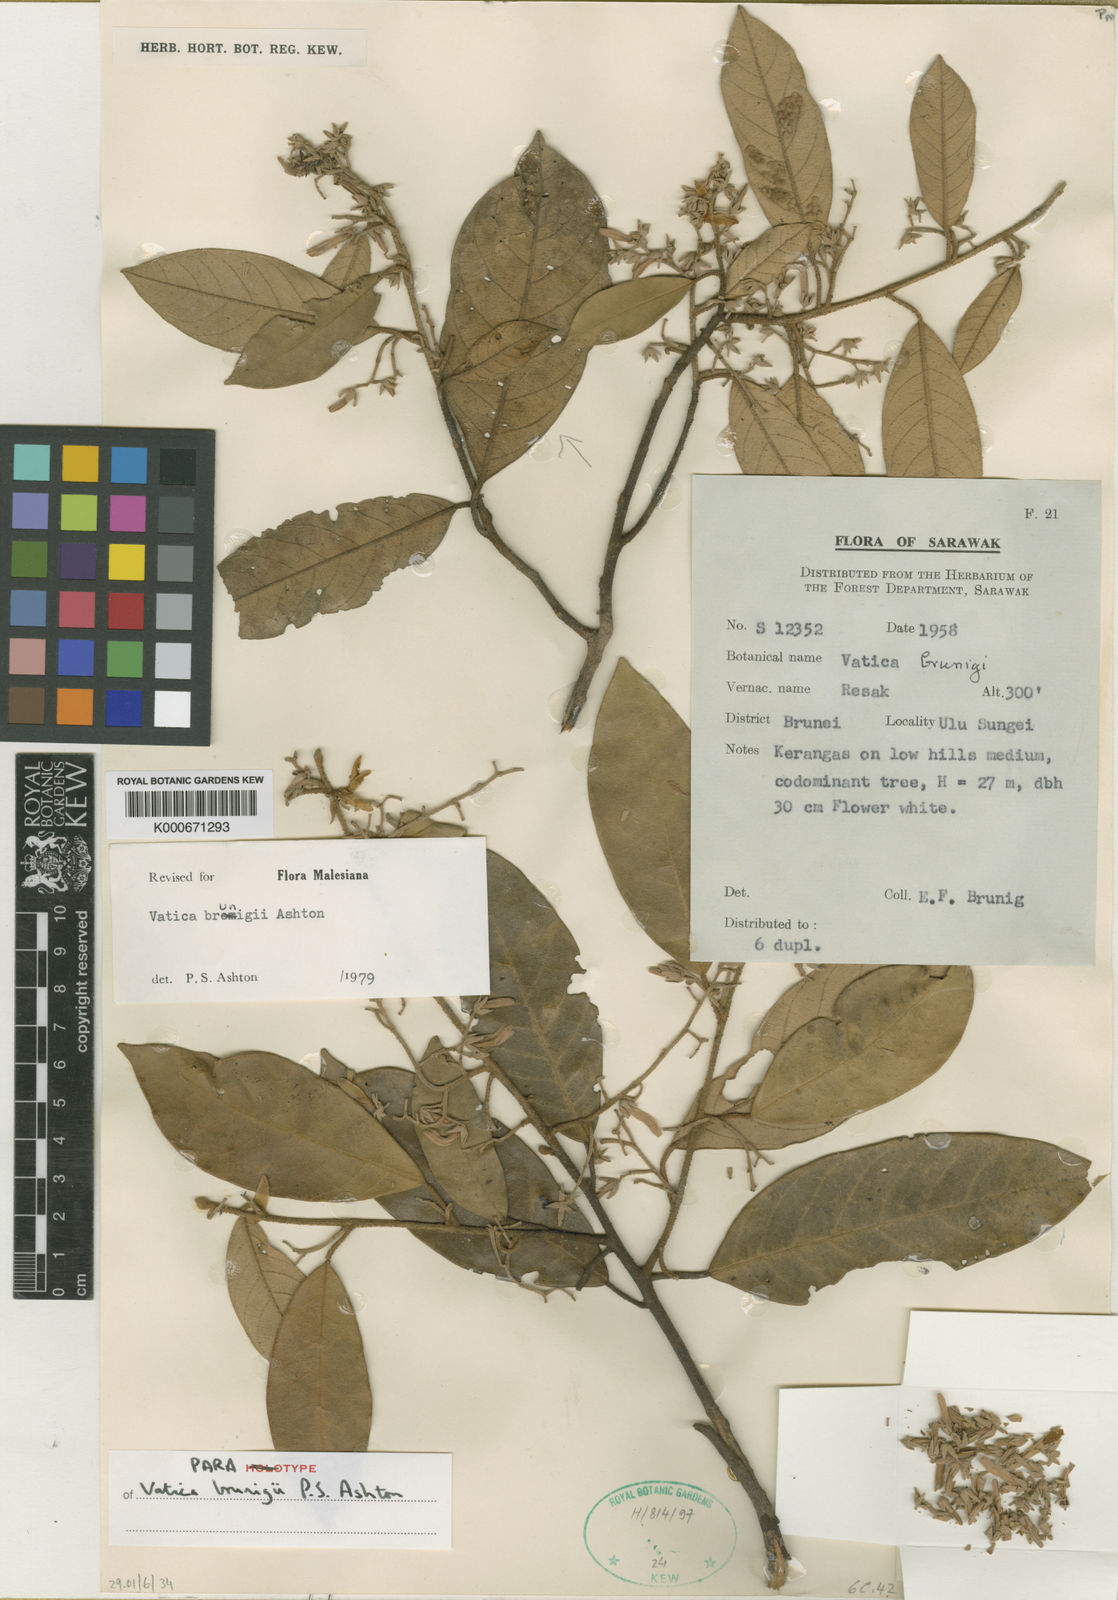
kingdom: Plantae
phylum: Tracheophyta
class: Magnoliopsida
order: Malvales
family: Dipterocarpaceae
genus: Vatica
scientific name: Vatica brunigii
